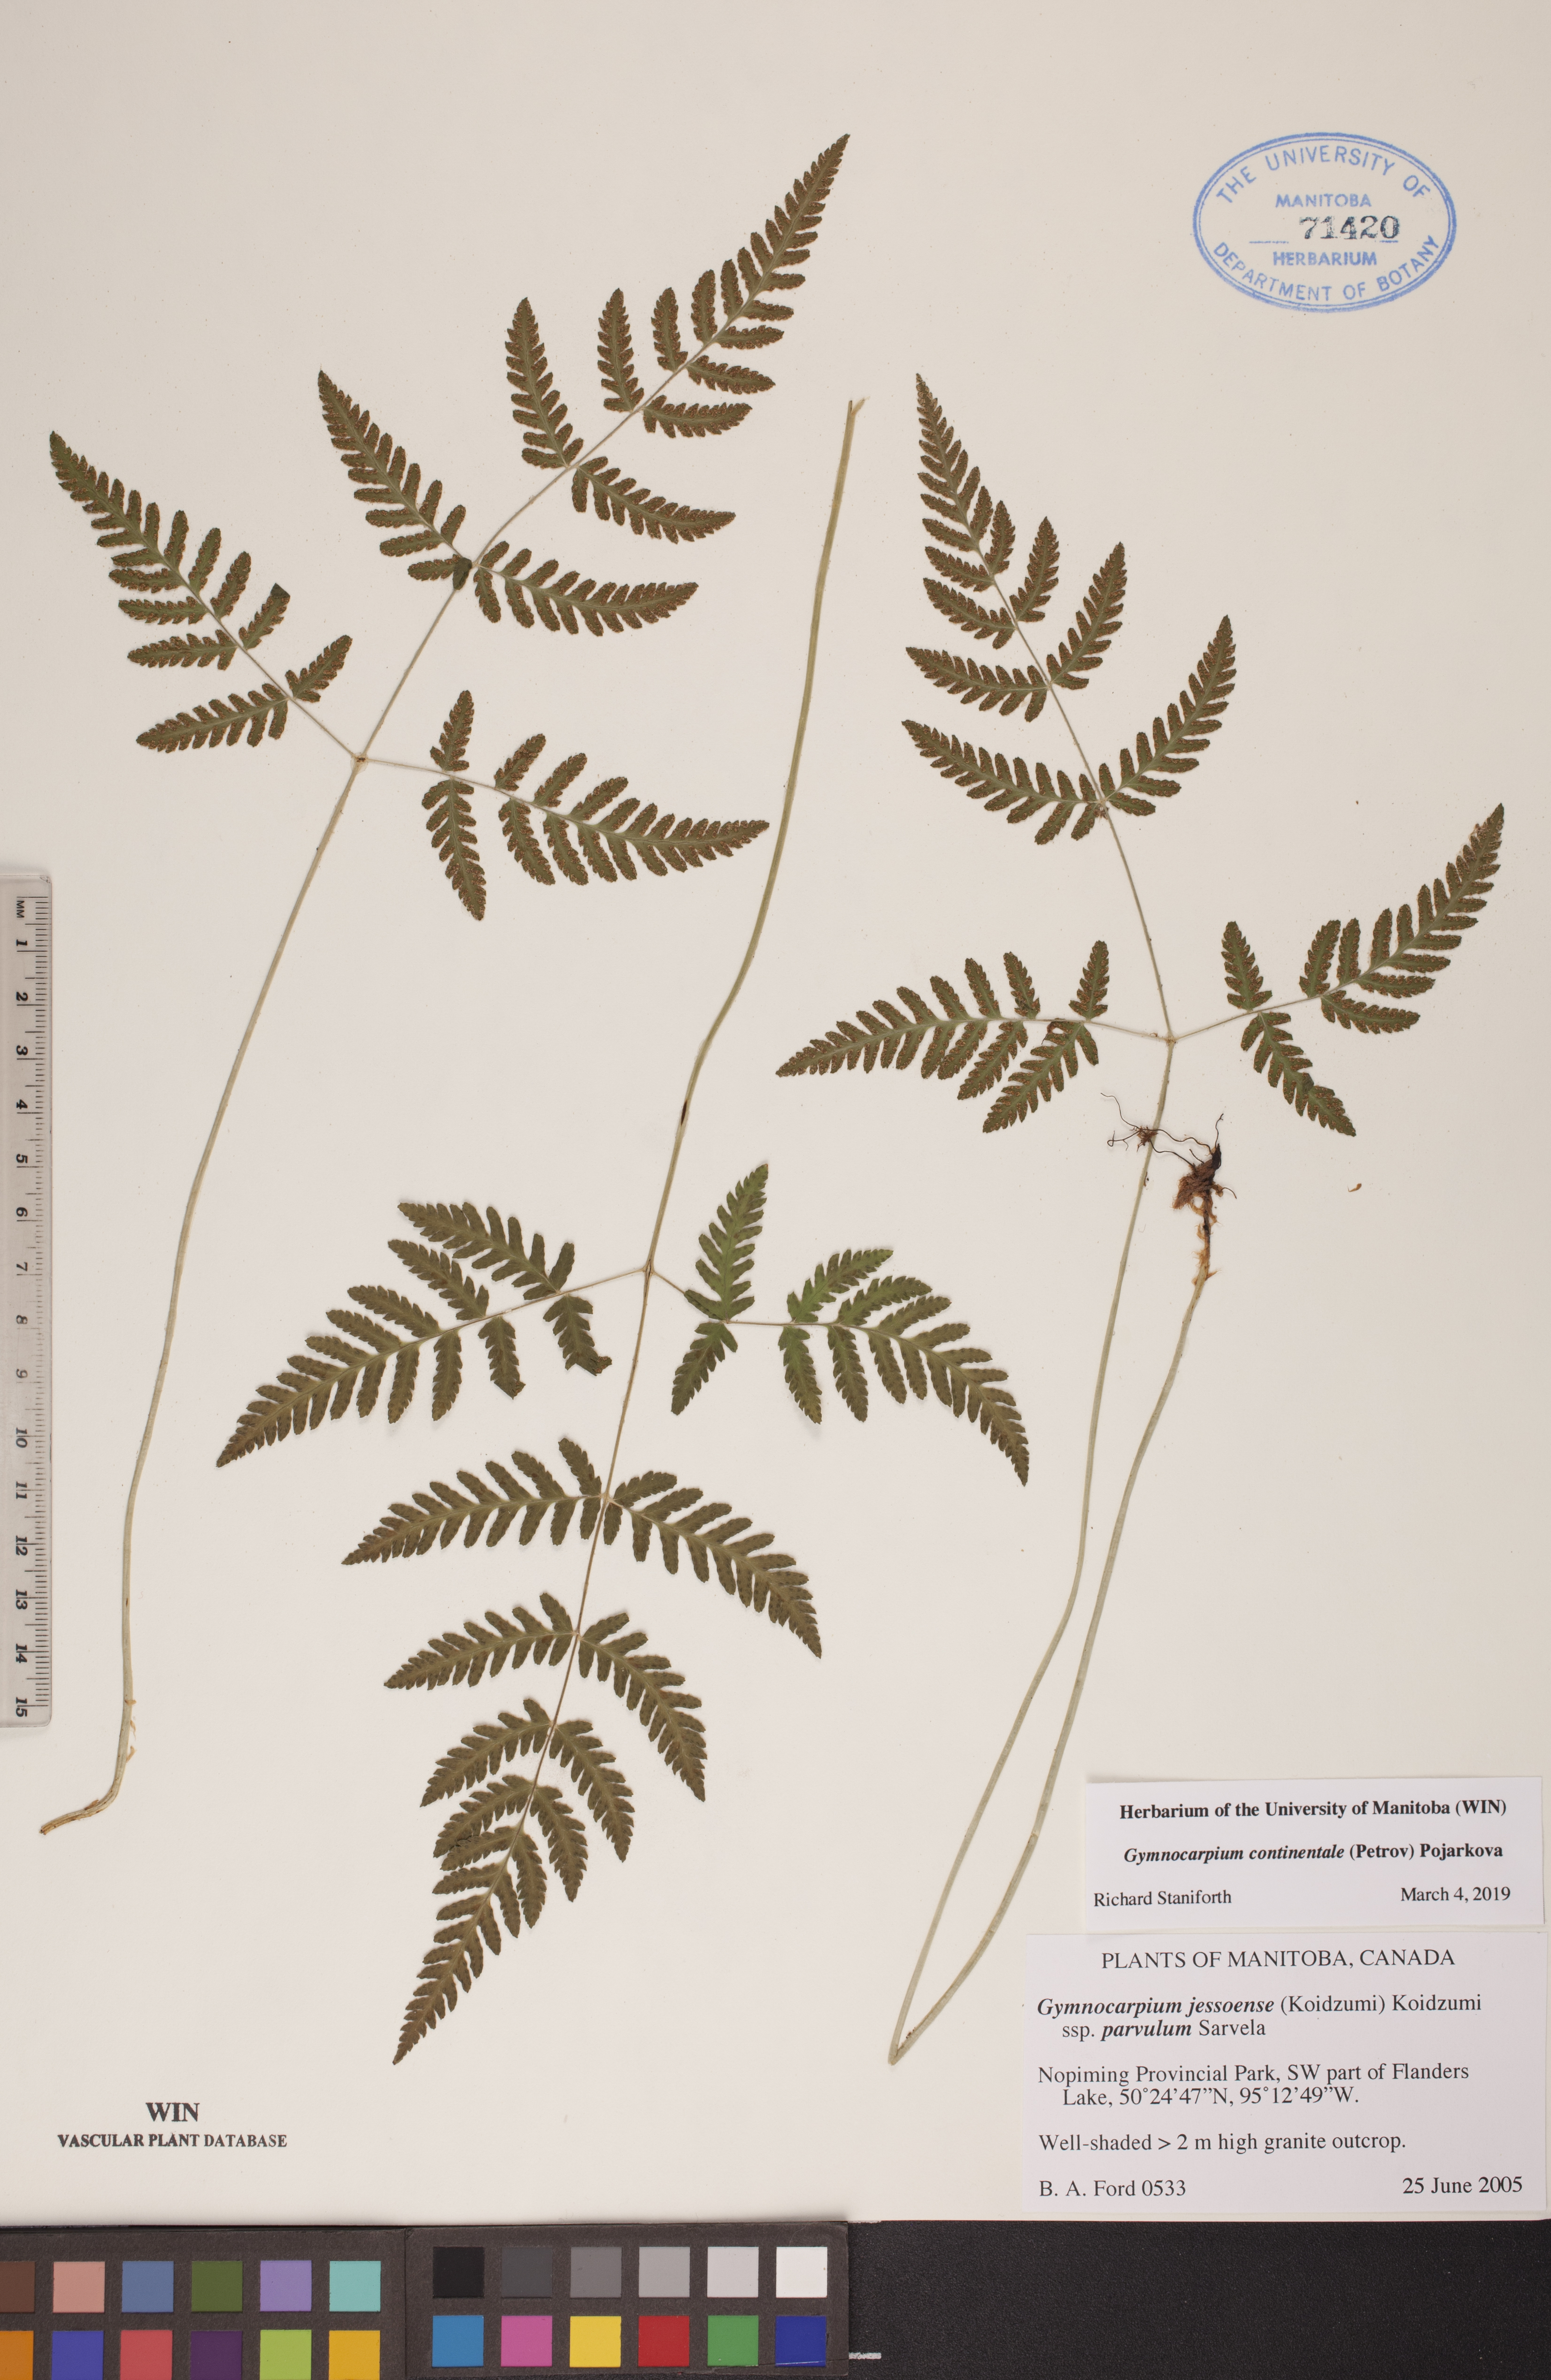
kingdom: Plantae
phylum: Tracheophyta
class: Polypodiopsida
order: Polypodiales
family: Cystopteridaceae
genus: Gymnocarpium
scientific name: Gymnocarpium continentale
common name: Asian oak fern
